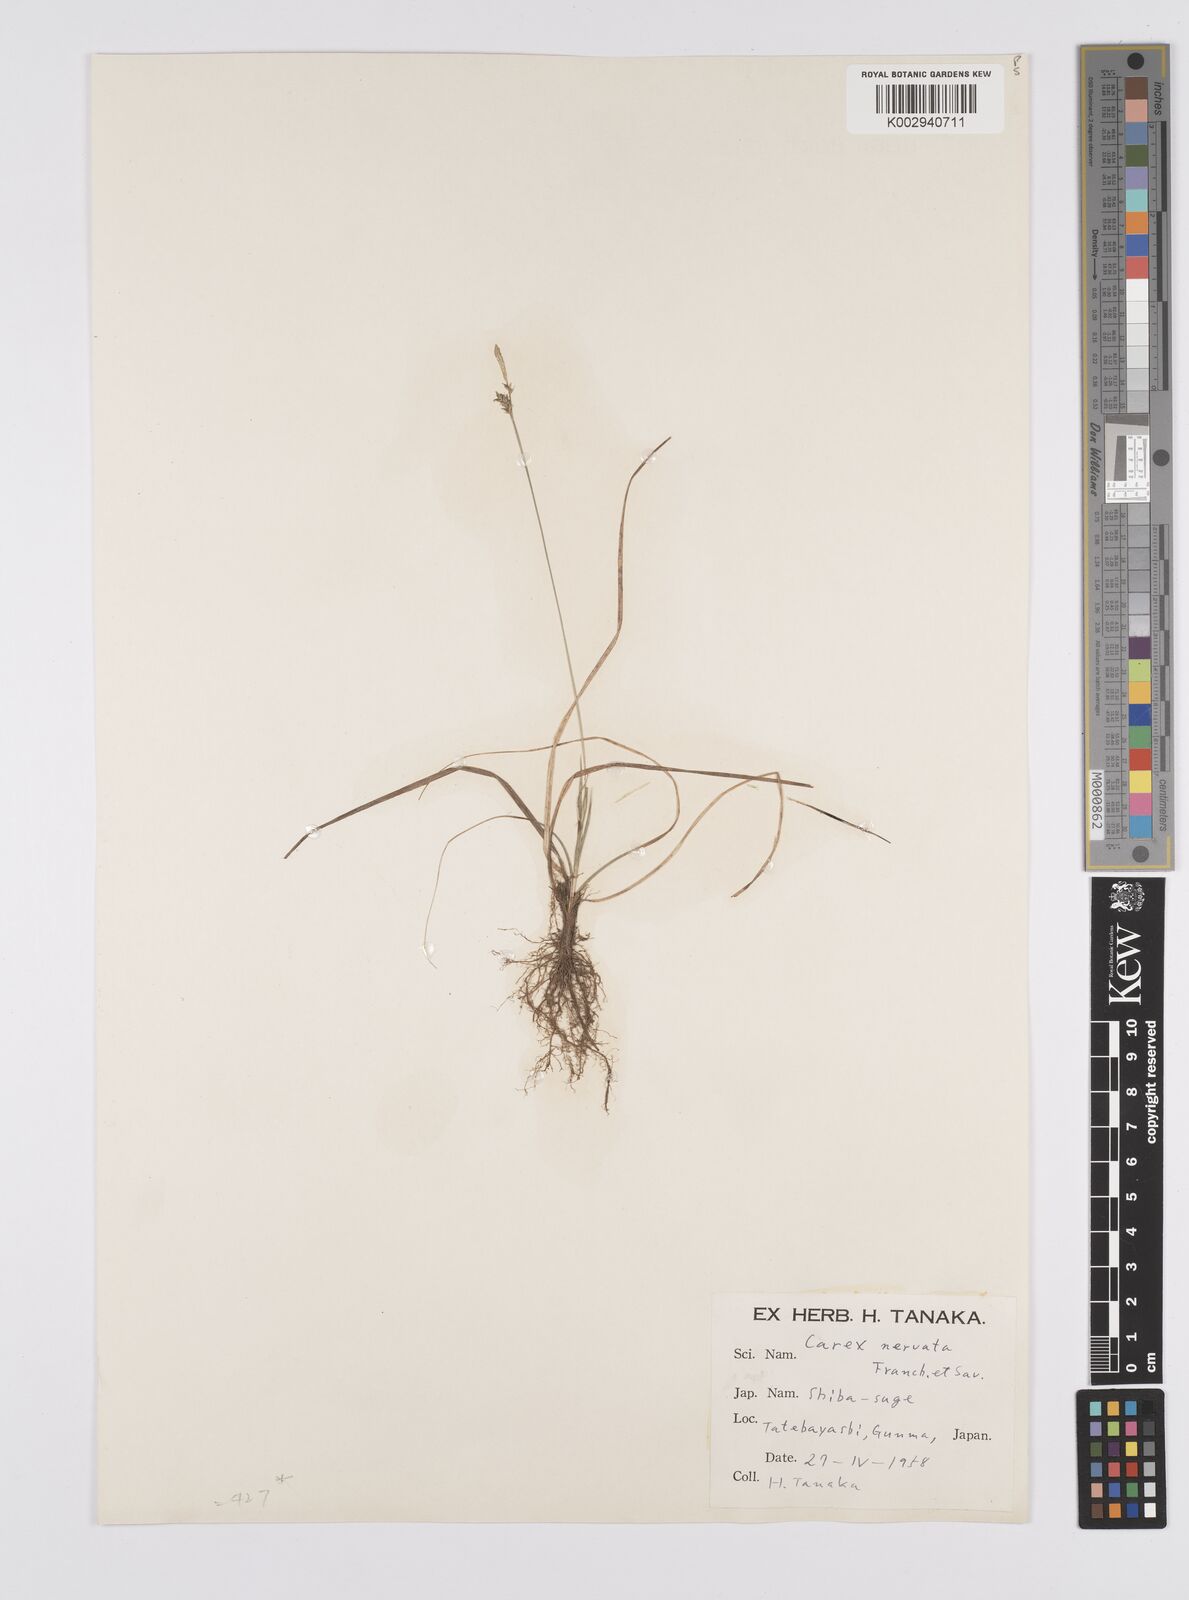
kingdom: Plantae
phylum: Tracheophyta
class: Liliopsida
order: Poales
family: Cyperaceae
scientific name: Cyperaceae
